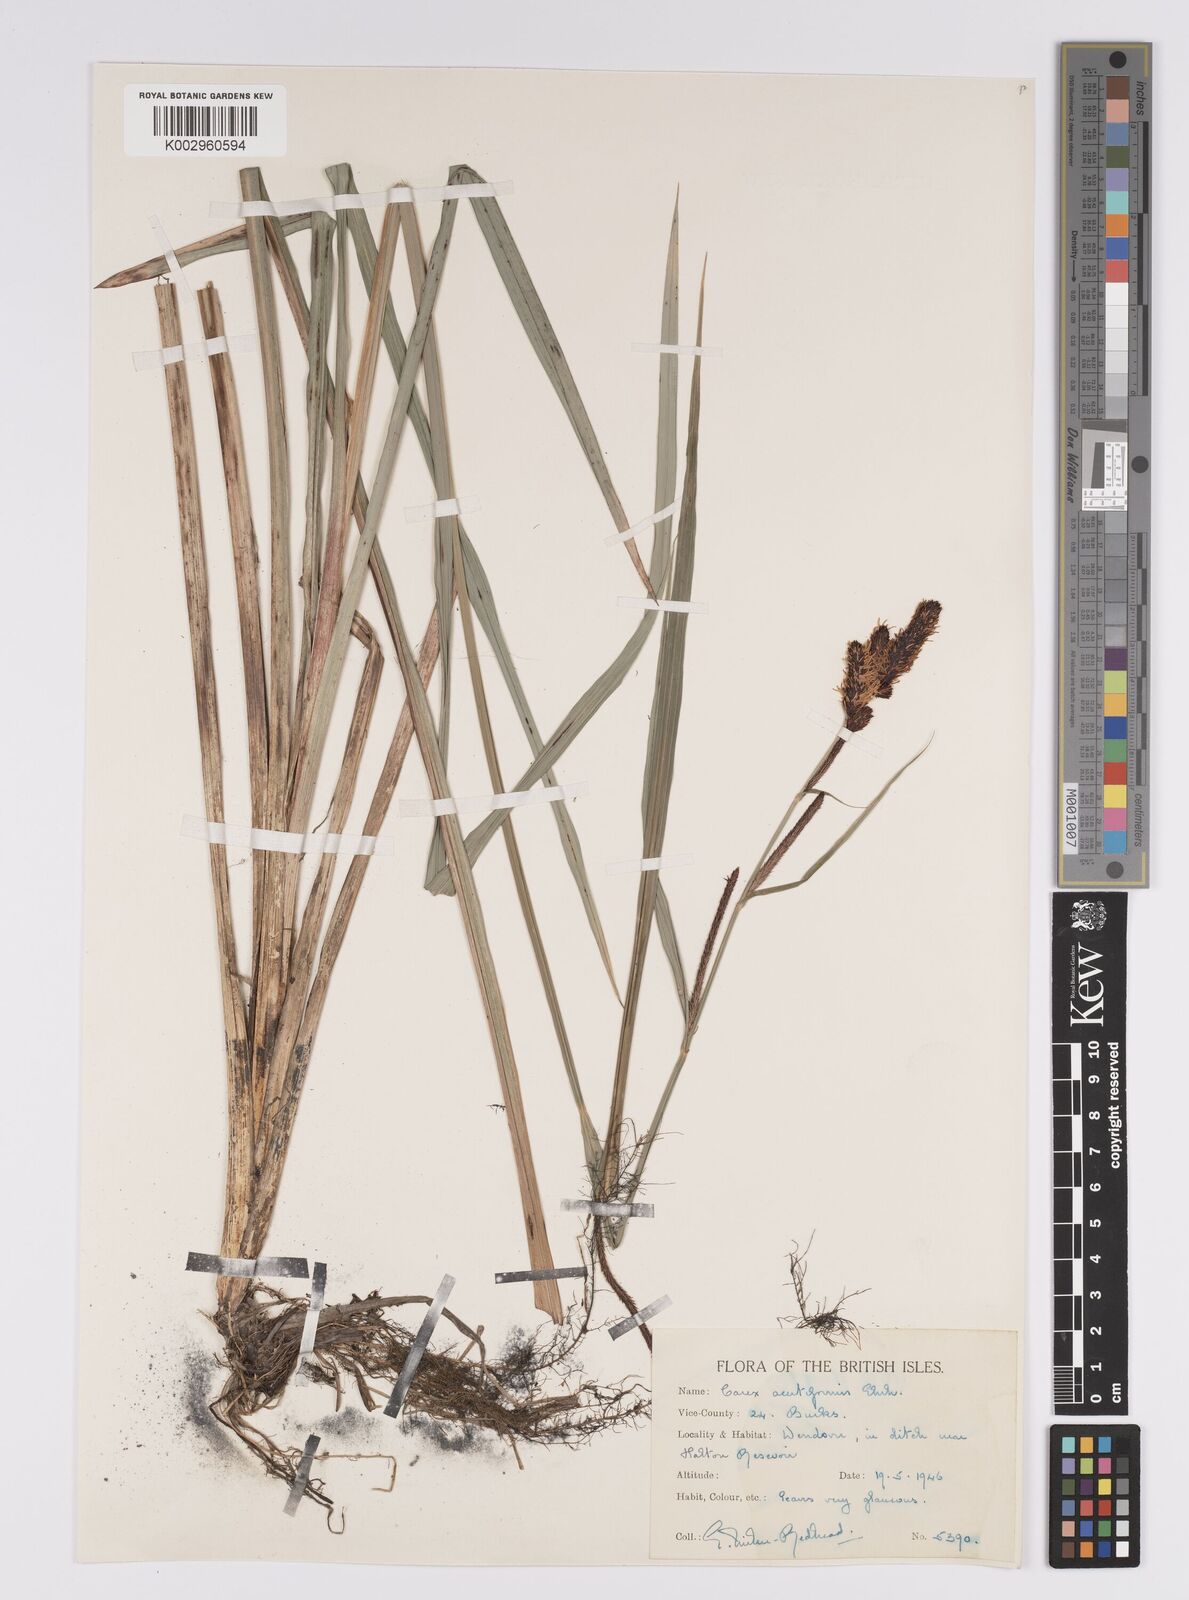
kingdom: Plantae
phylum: Tracheophyta
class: Liliopsida
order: Poales
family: Cyperaceae
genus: Carex
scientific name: Carex acutiformis
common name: Lesser pond-sedge
